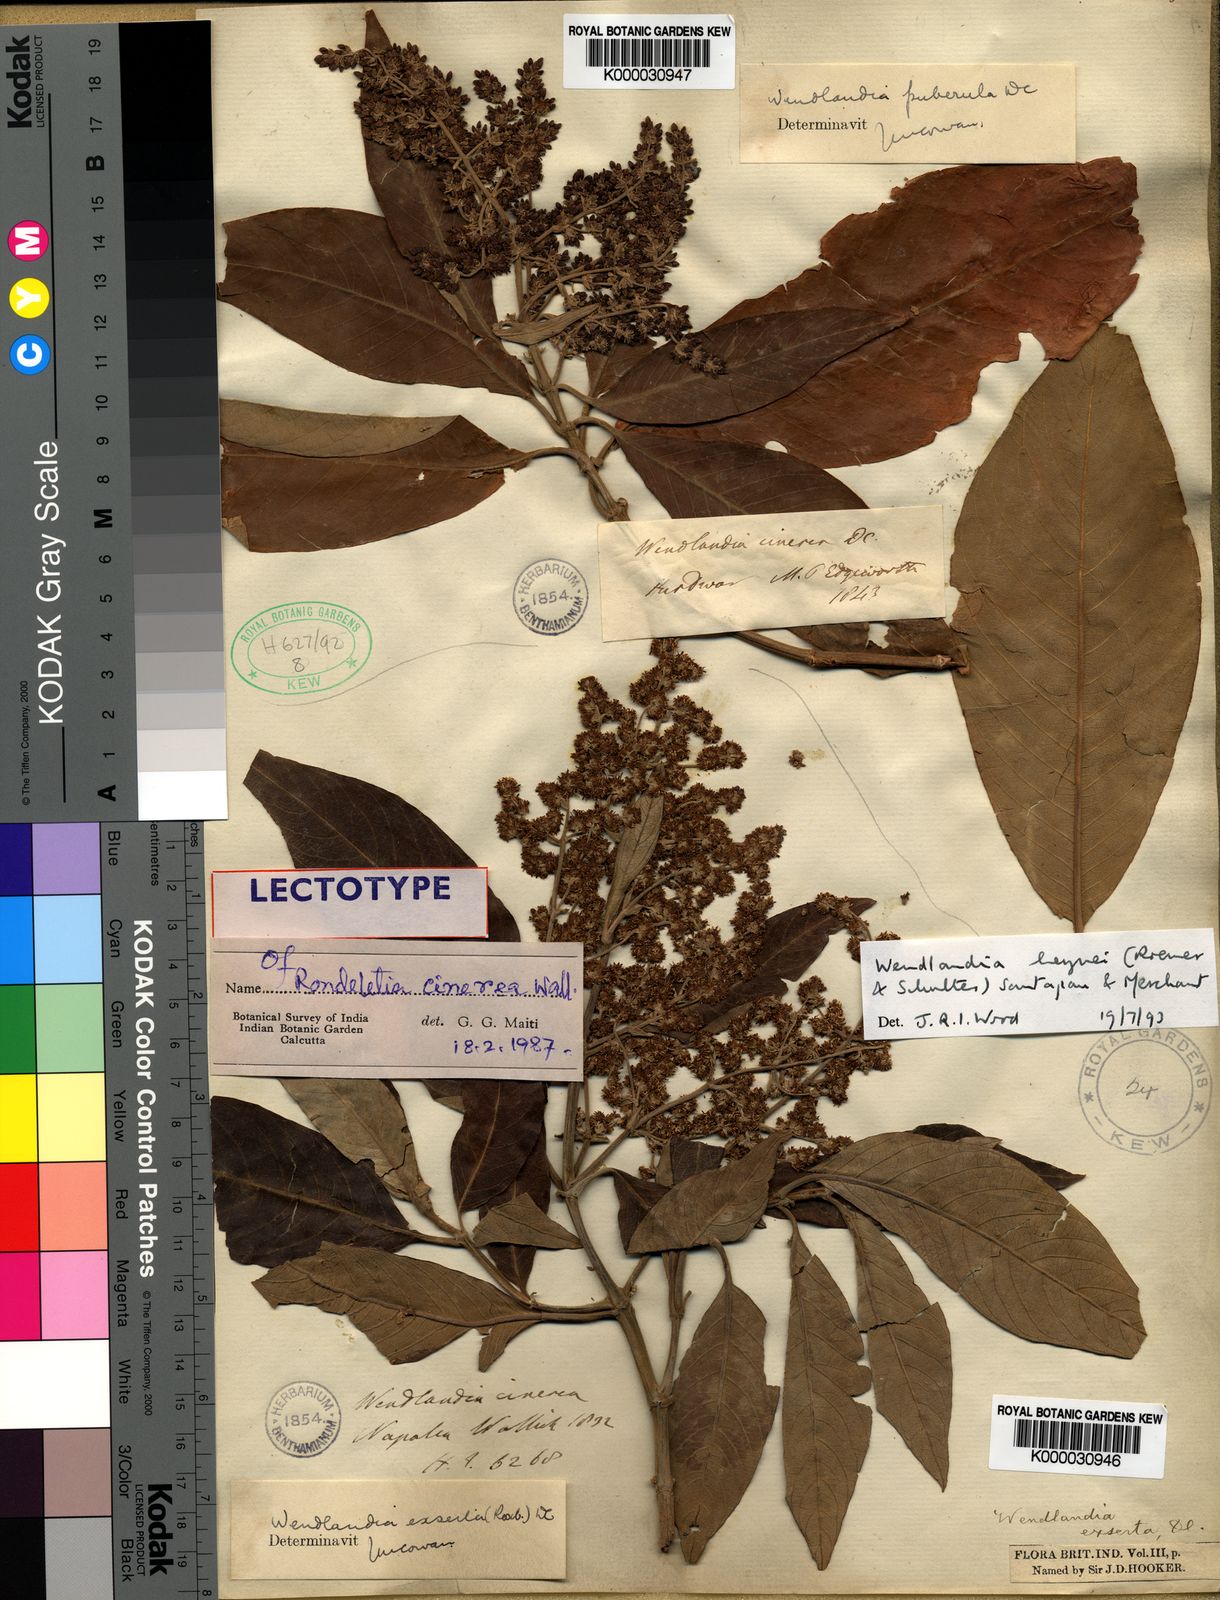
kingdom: Plantae
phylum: Tracheophyta
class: Magnoliopsida
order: Gentianales
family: Rubiaceae
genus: Wendlandia
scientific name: Wendlandia heynei
